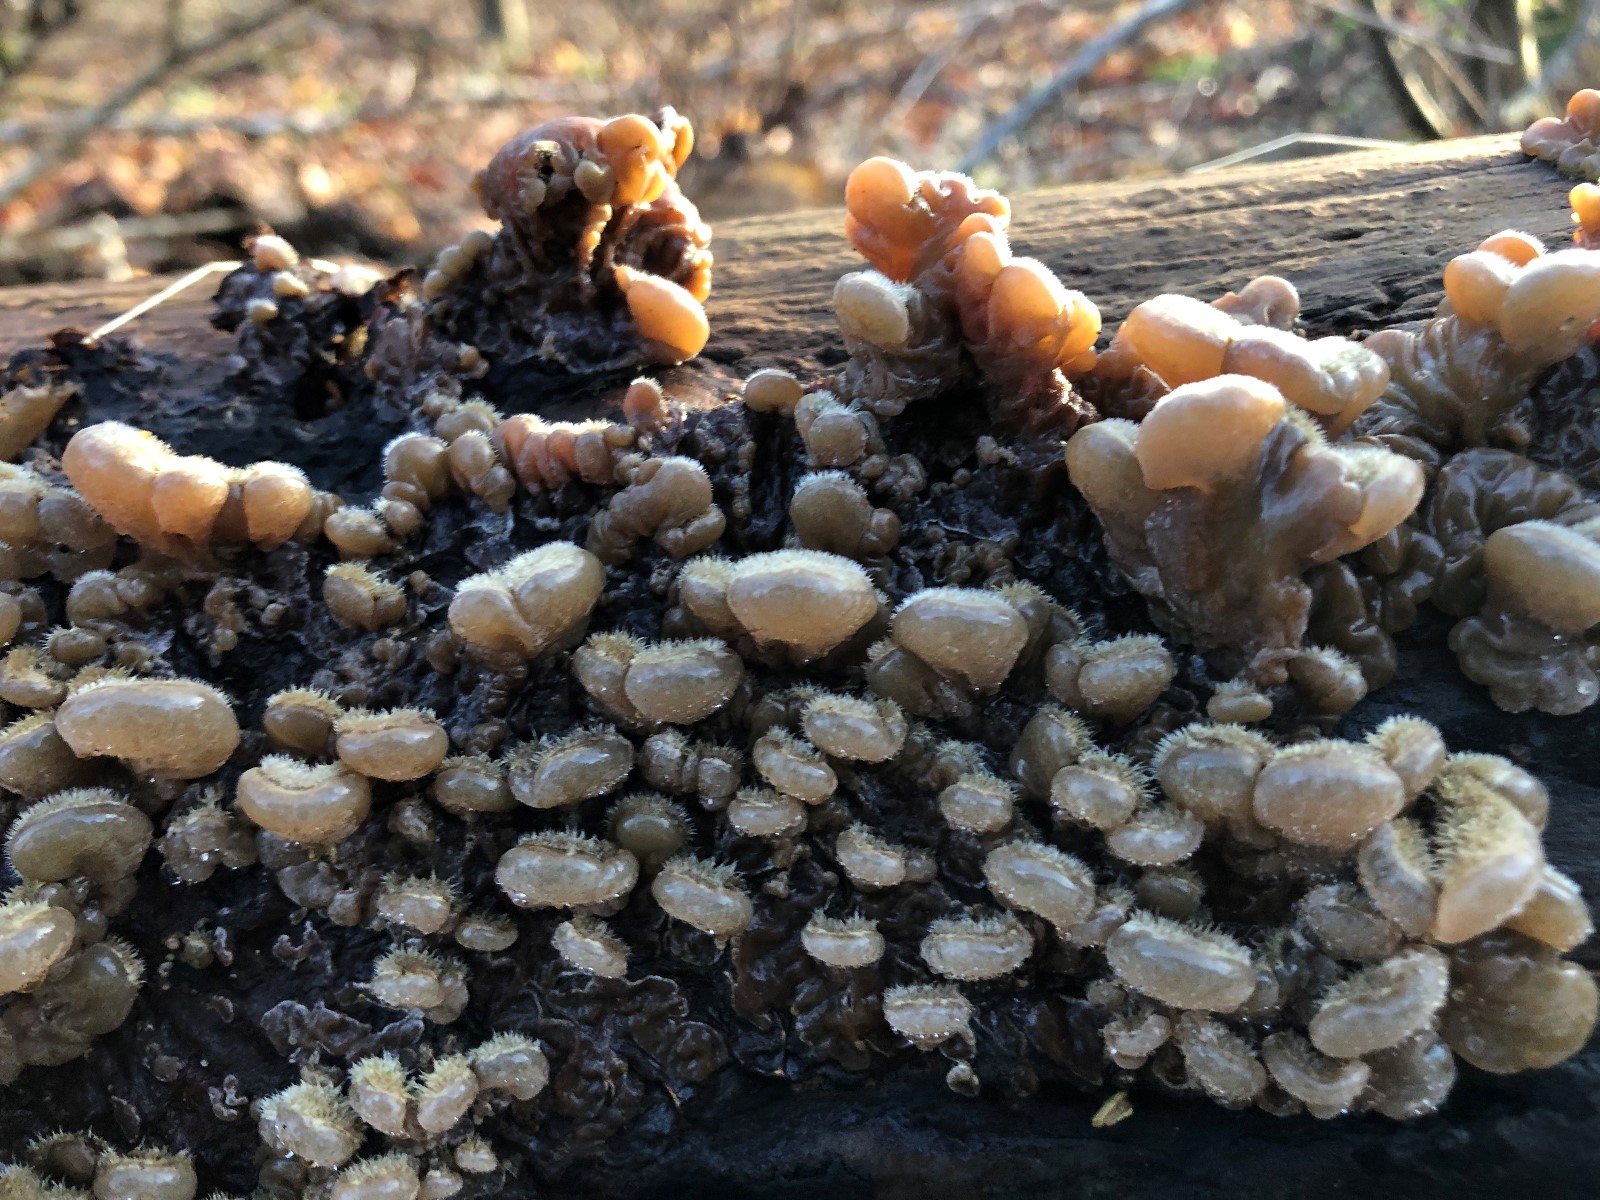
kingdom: Fungi
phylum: Basidiomycota
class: Agaricomycetes
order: Auriculariales
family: Auriculariaceae
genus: Auricularia
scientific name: Auricularia mesenterica
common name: håret judasøre
